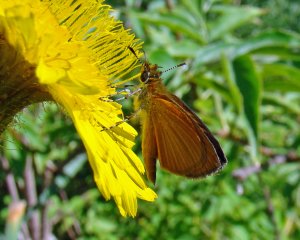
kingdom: Animalia
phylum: Arthropoda
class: Insecta
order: Lepidoptera
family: Hesperiidae
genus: Ancyloxypha
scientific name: Ancyloxypha numitor
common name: Least Skipper
